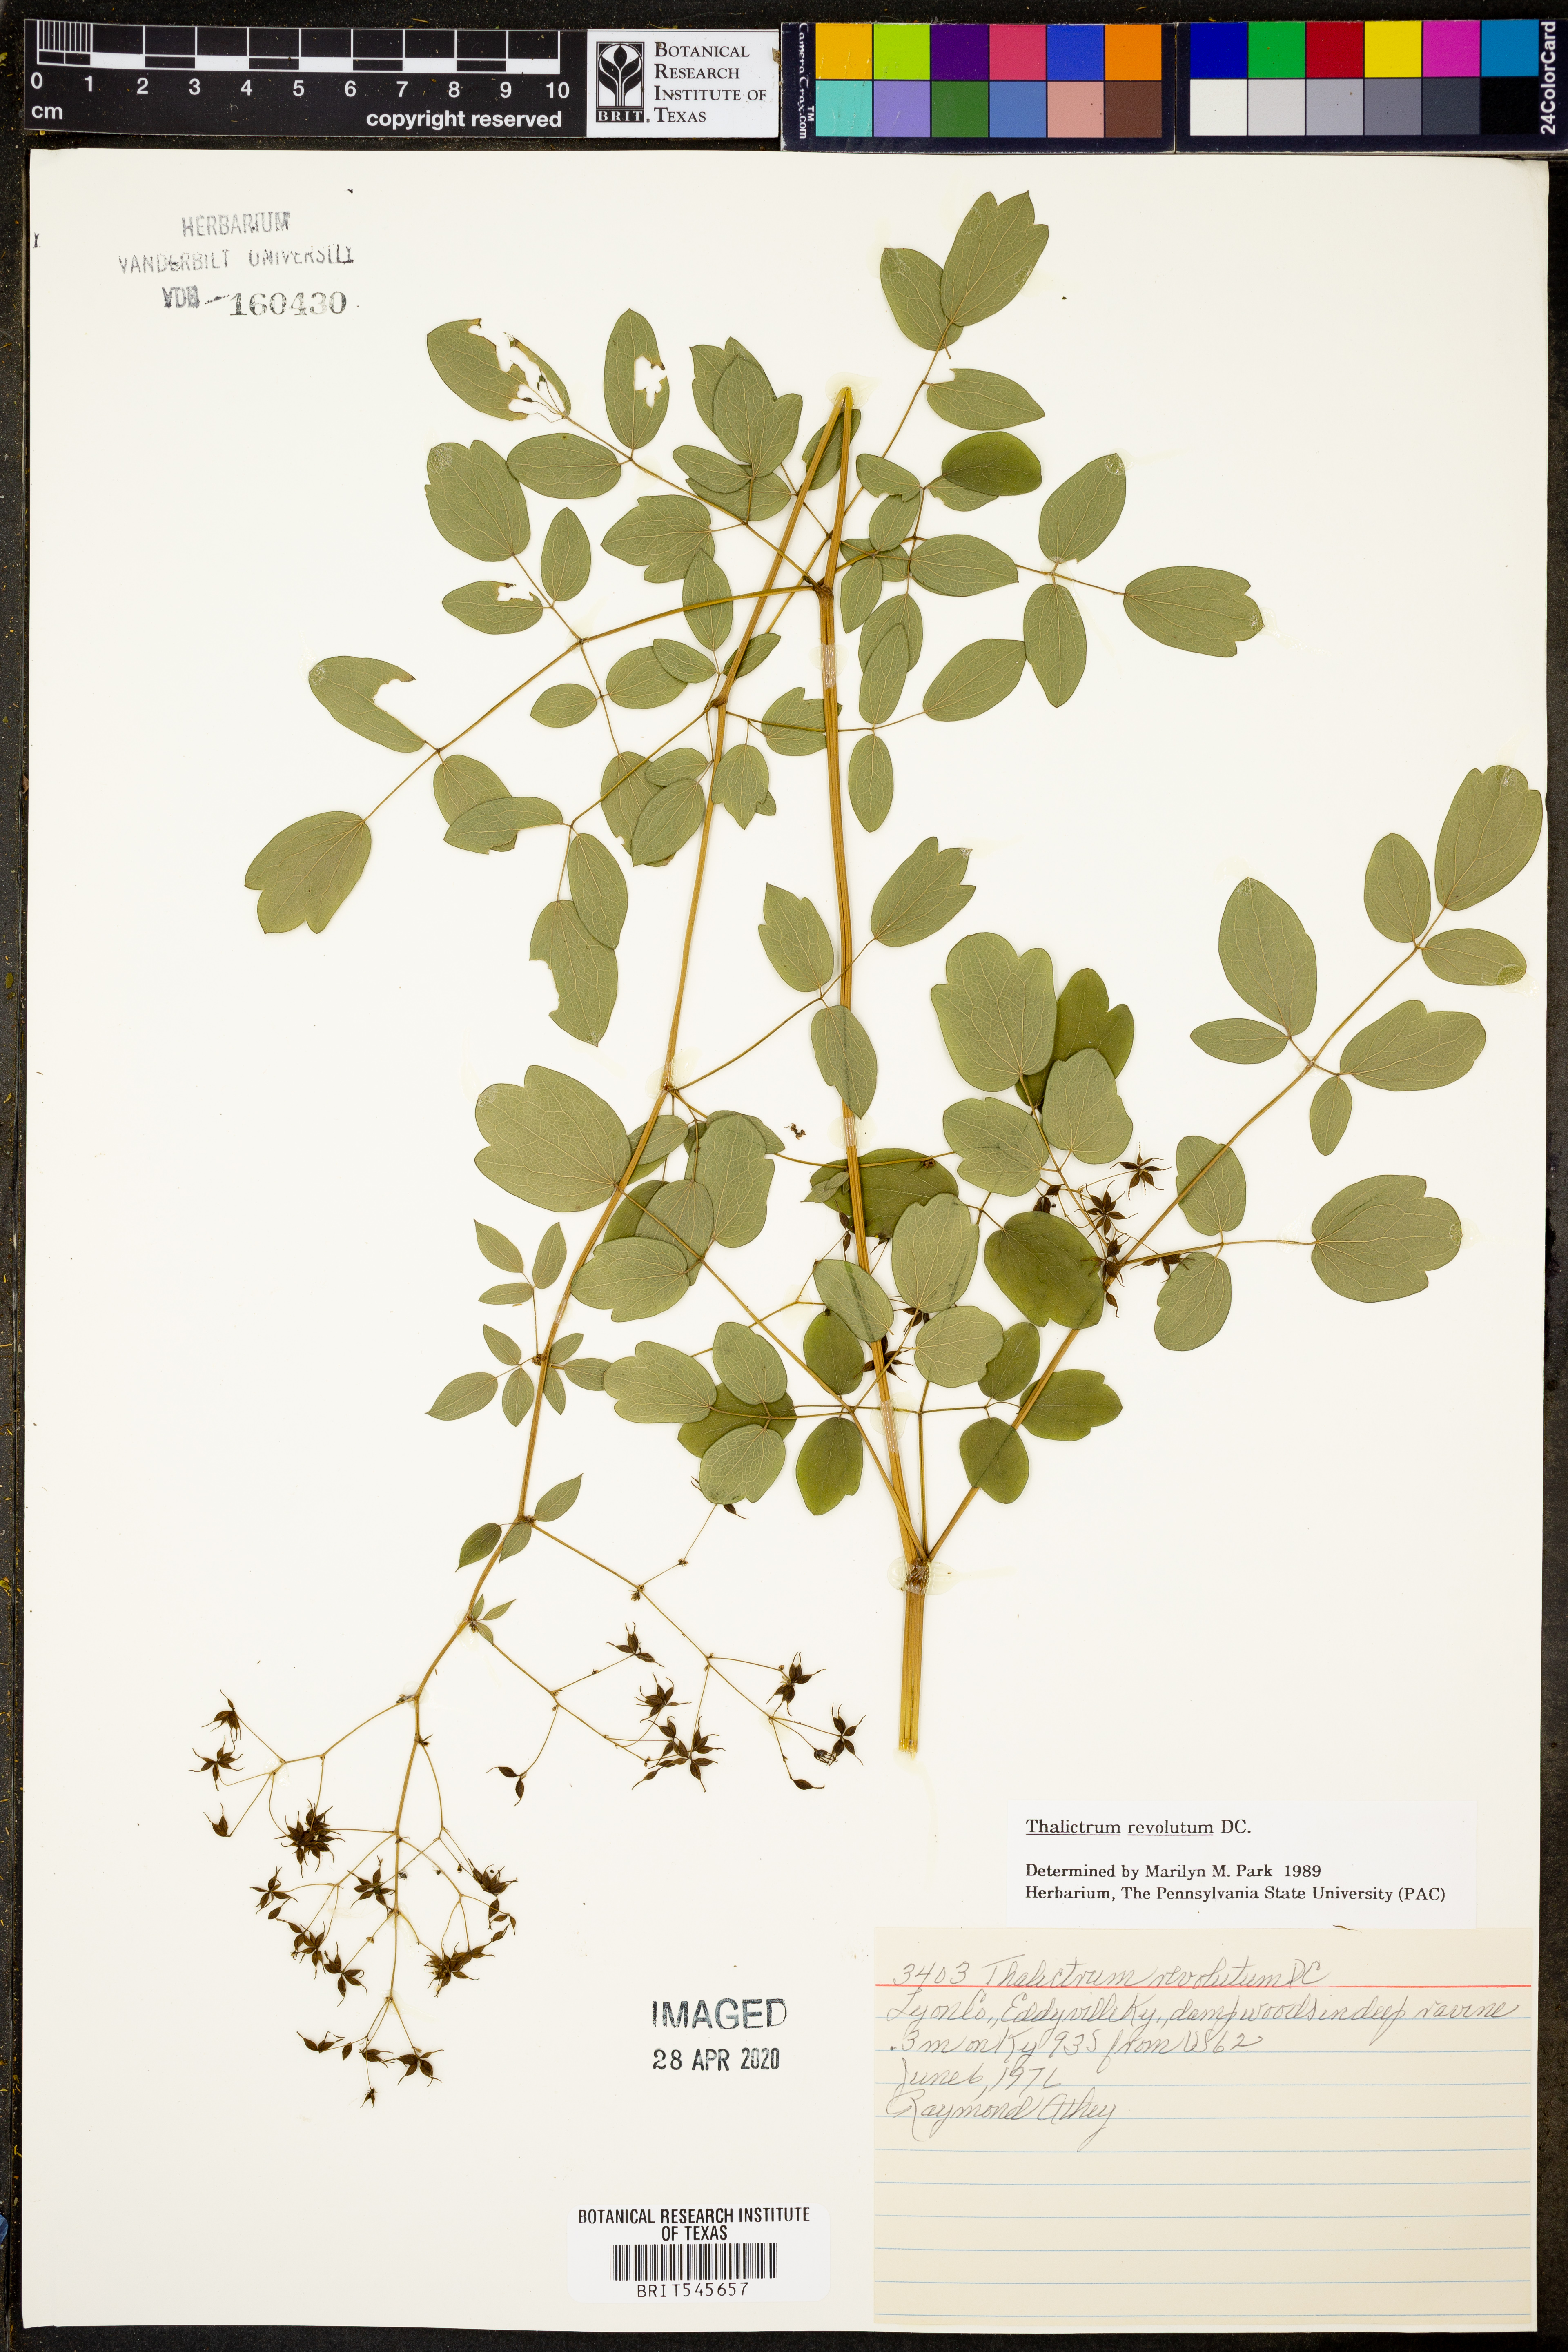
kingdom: Plantae
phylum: Tracheophyta
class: Magnoliopsida
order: Ranunculales
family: Ranunculaceae
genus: Thalictrum
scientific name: Thalictrum revolutum
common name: Waxy meadow-rue
